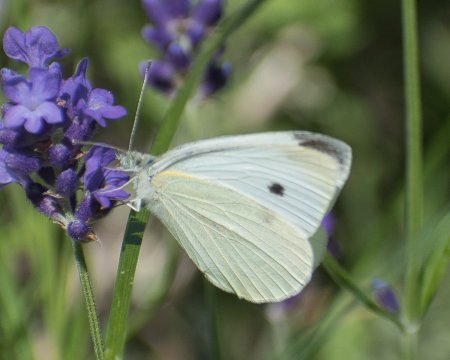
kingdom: Animalia
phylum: Arthropoda
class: Insecta
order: Lepidoptera
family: Pieridae
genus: Pieris
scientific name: Pieris rapae
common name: Cabbage White
